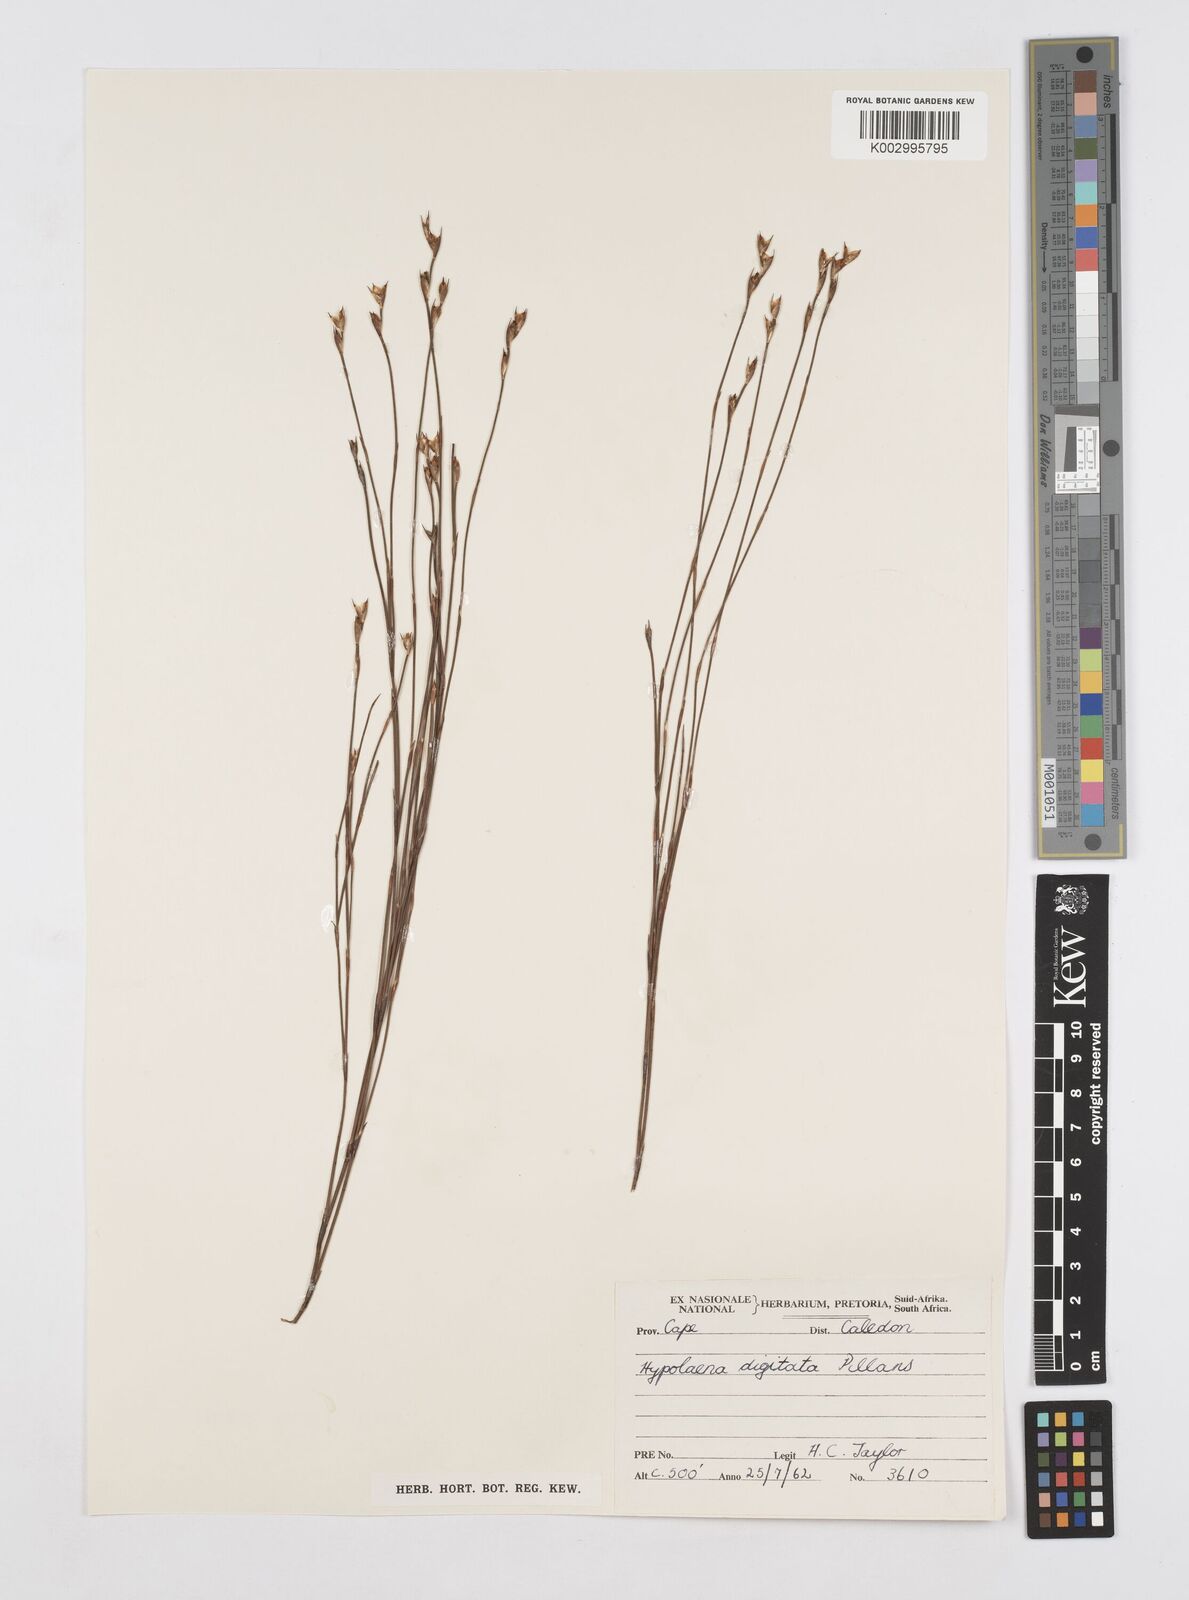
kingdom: Plantae
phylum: Tracheophyta
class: Liliopsida
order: Poales
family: Restionaceae
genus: Mastersiella
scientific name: Mastersiella digitata
